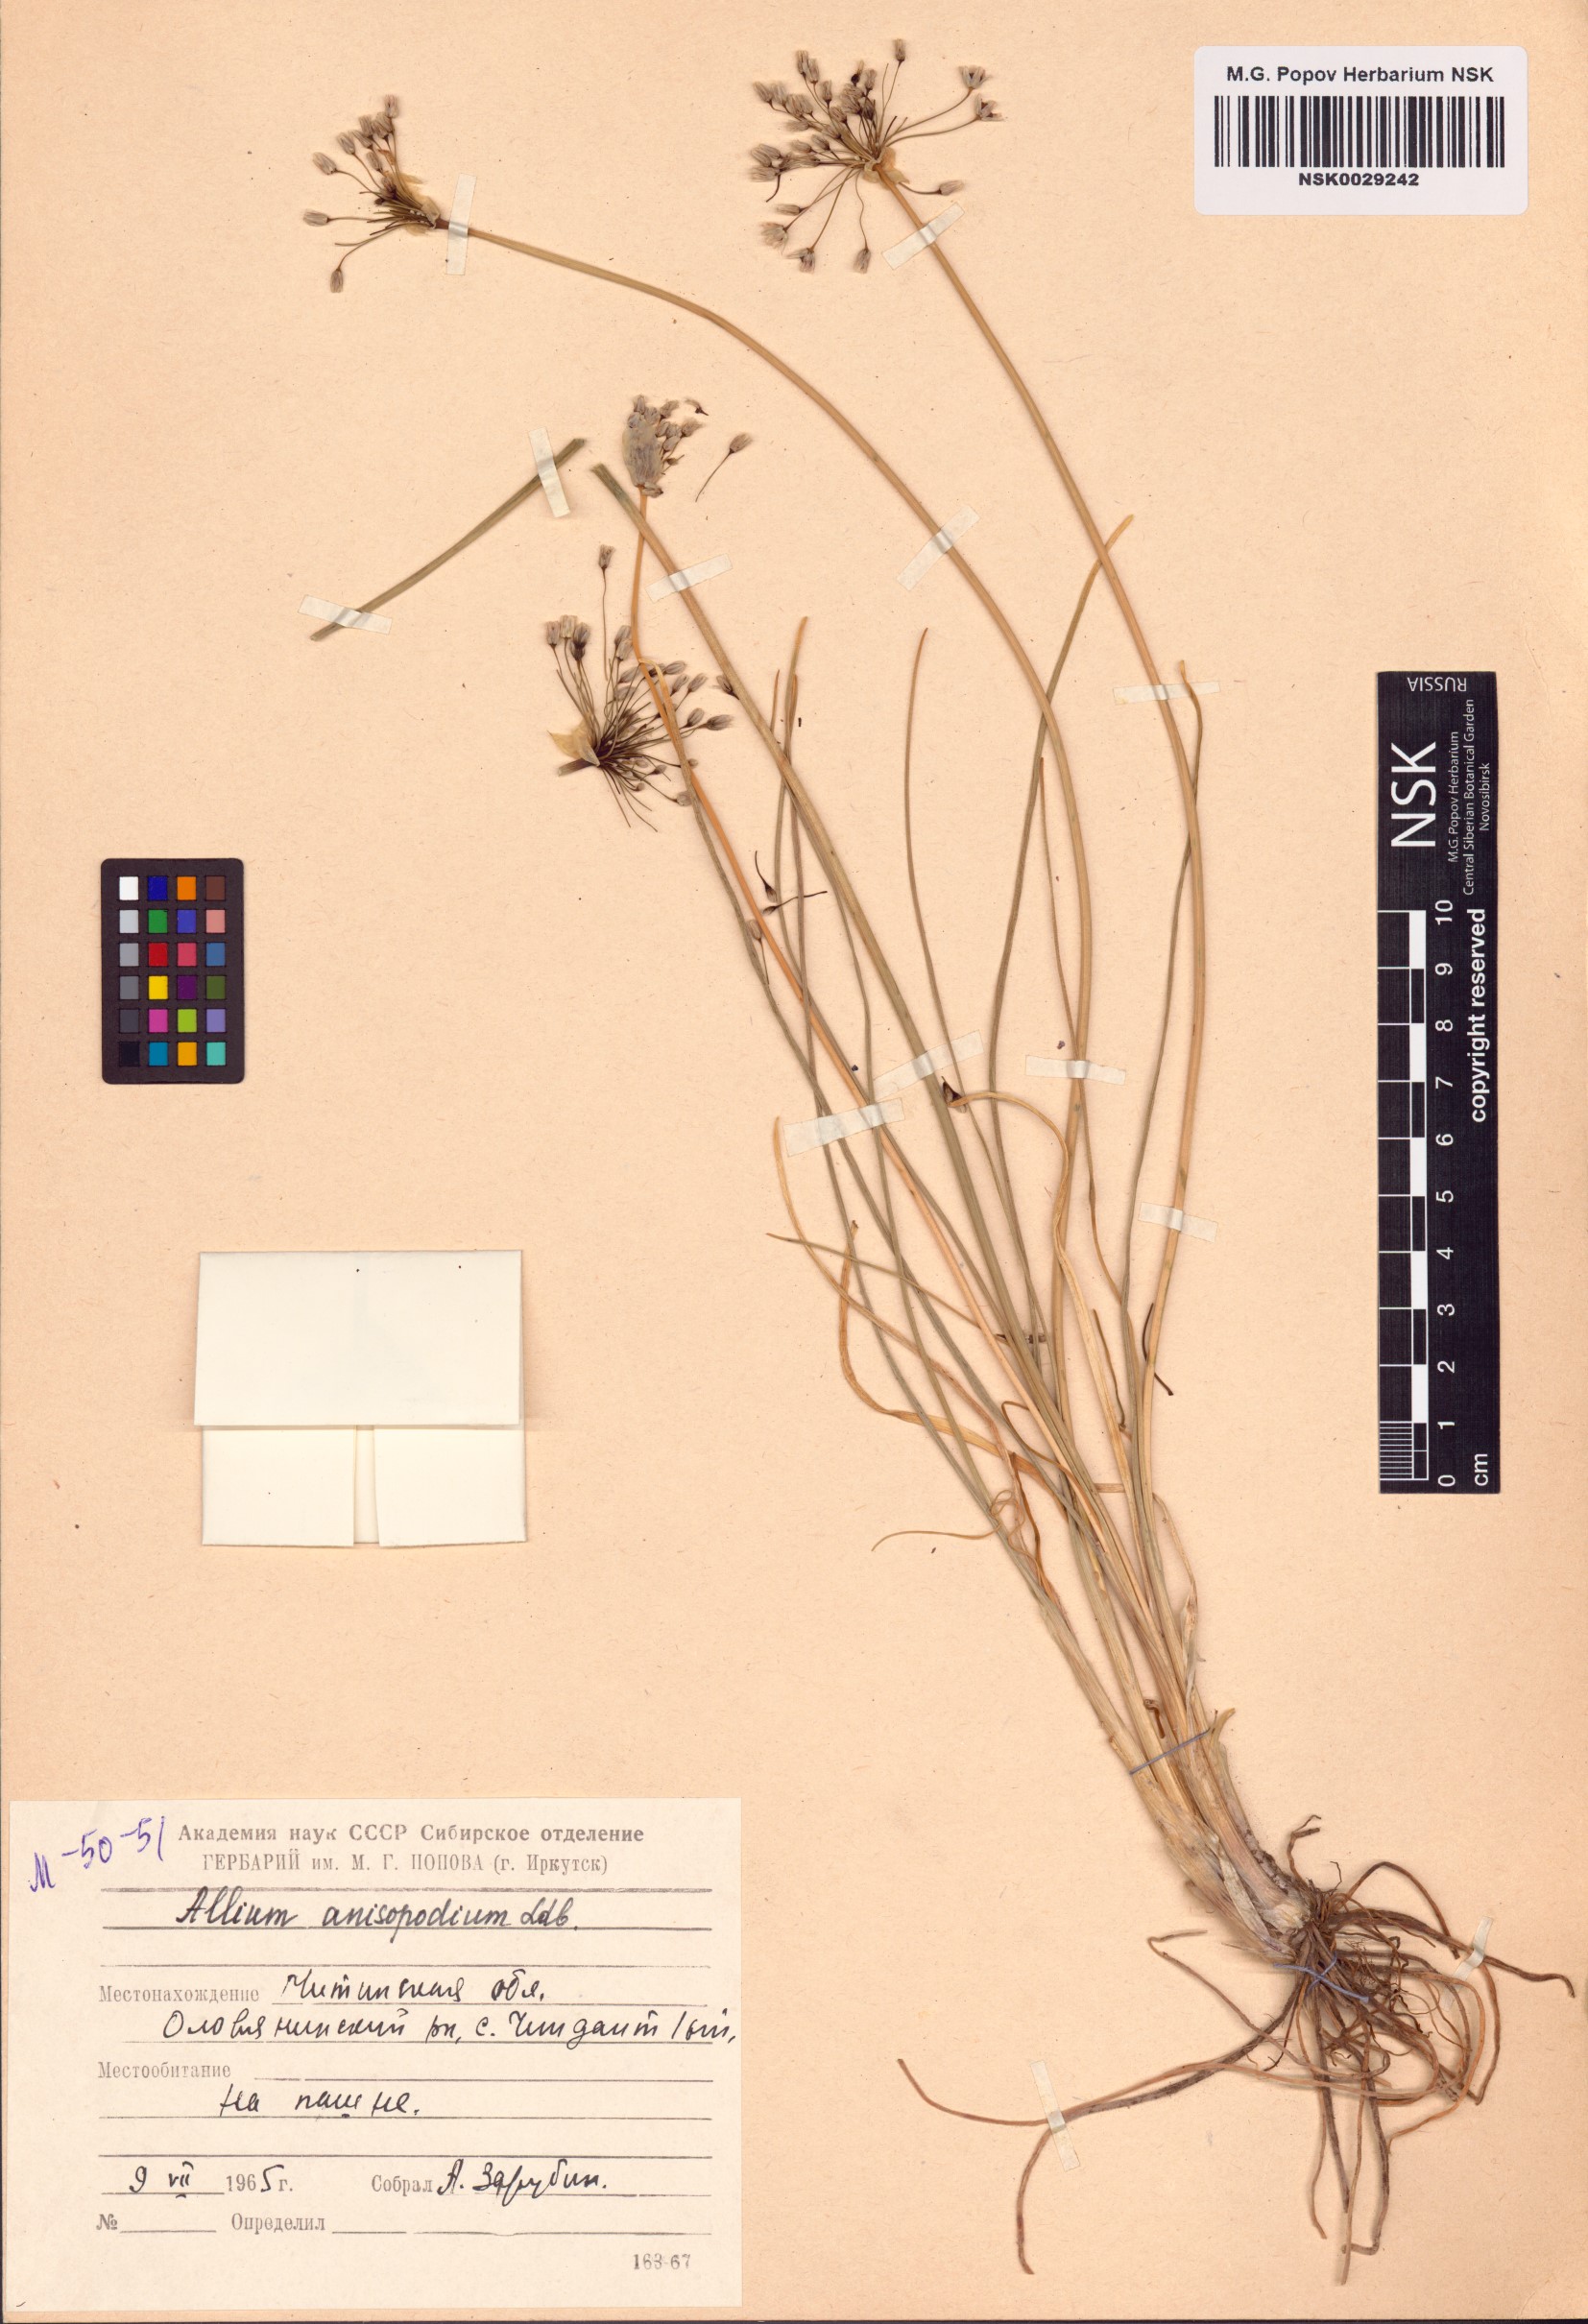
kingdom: Plantae
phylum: Tracheophyta
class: Liliopsida
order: Asparagales
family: Amaryllidaceae
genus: Allium
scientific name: Allium anisopodium
